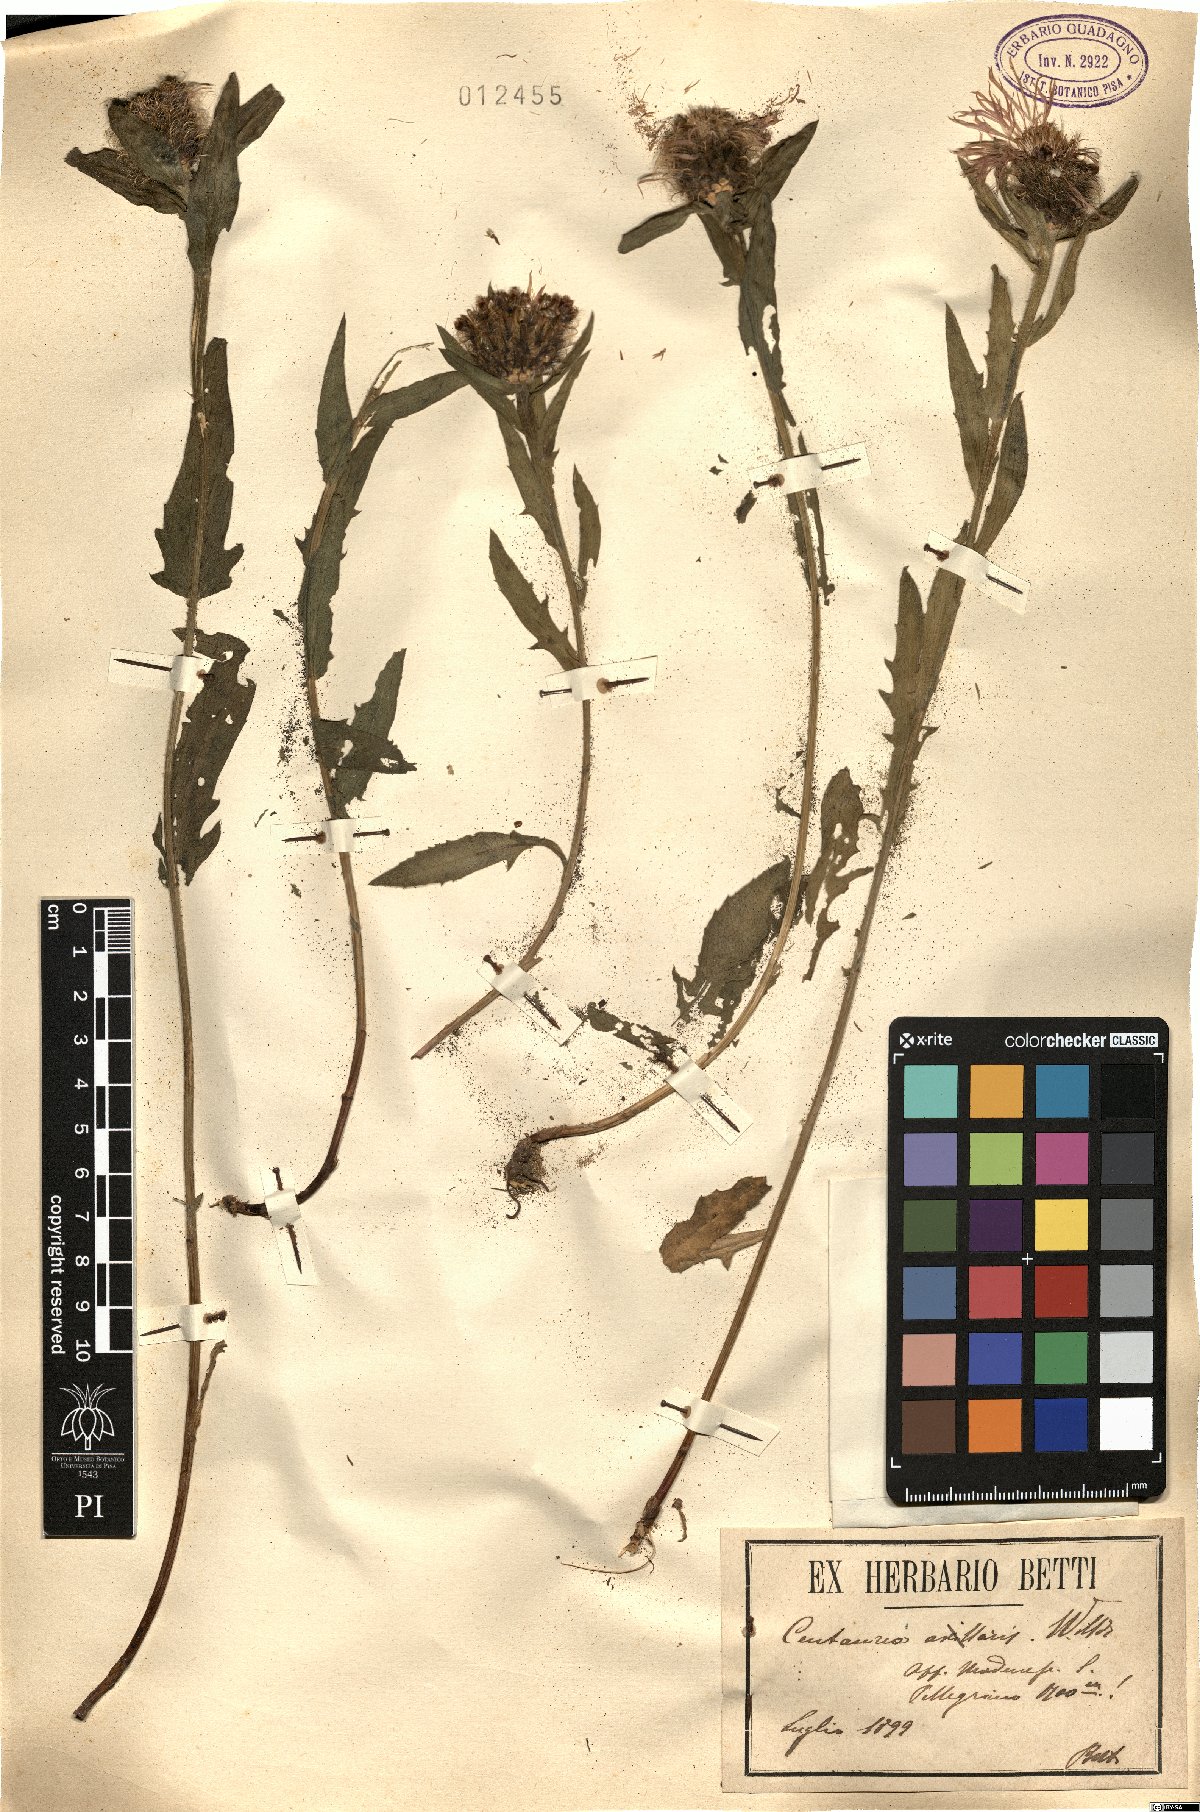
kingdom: Plantae
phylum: Tracheophyta
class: Magnoliopsida
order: Asterales
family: Asteraceae
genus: Centaurea
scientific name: Centaurea triumfettii
